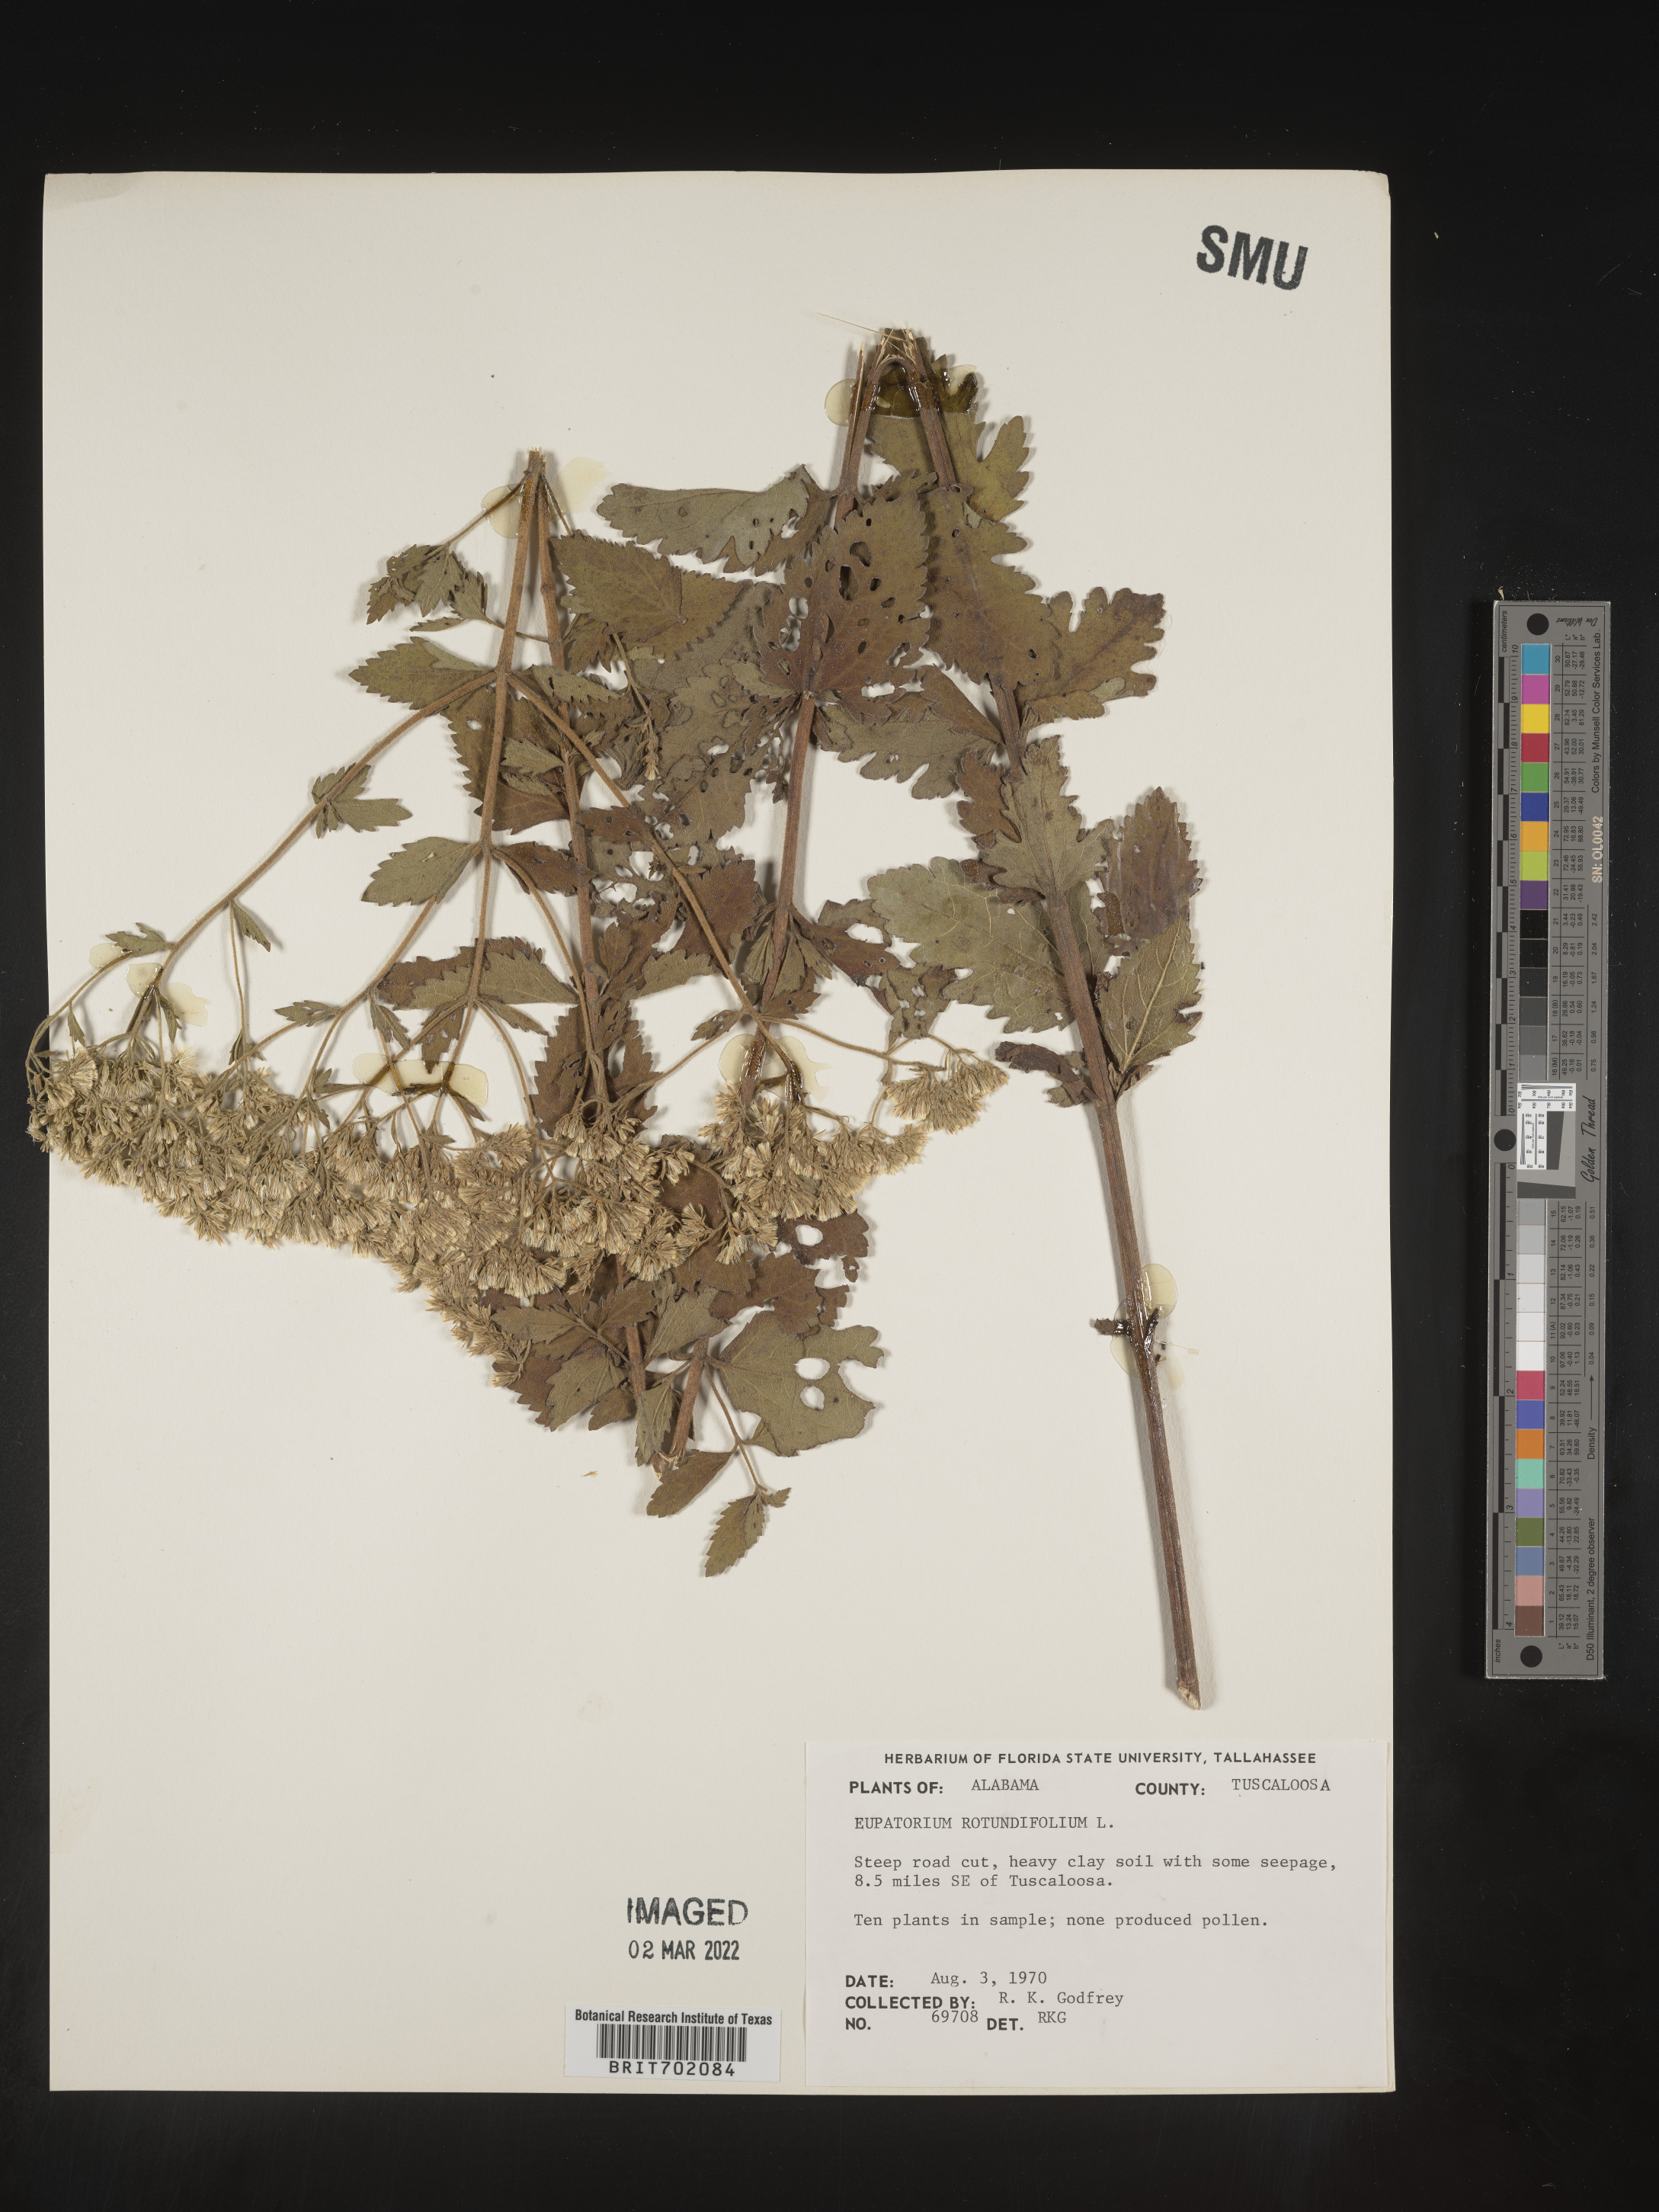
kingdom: Plantae
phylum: Tracheophyta
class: Magnoliopsida
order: Asterales
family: Asteraceae
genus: Eupatorium
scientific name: Eupatorium rotundifolium
